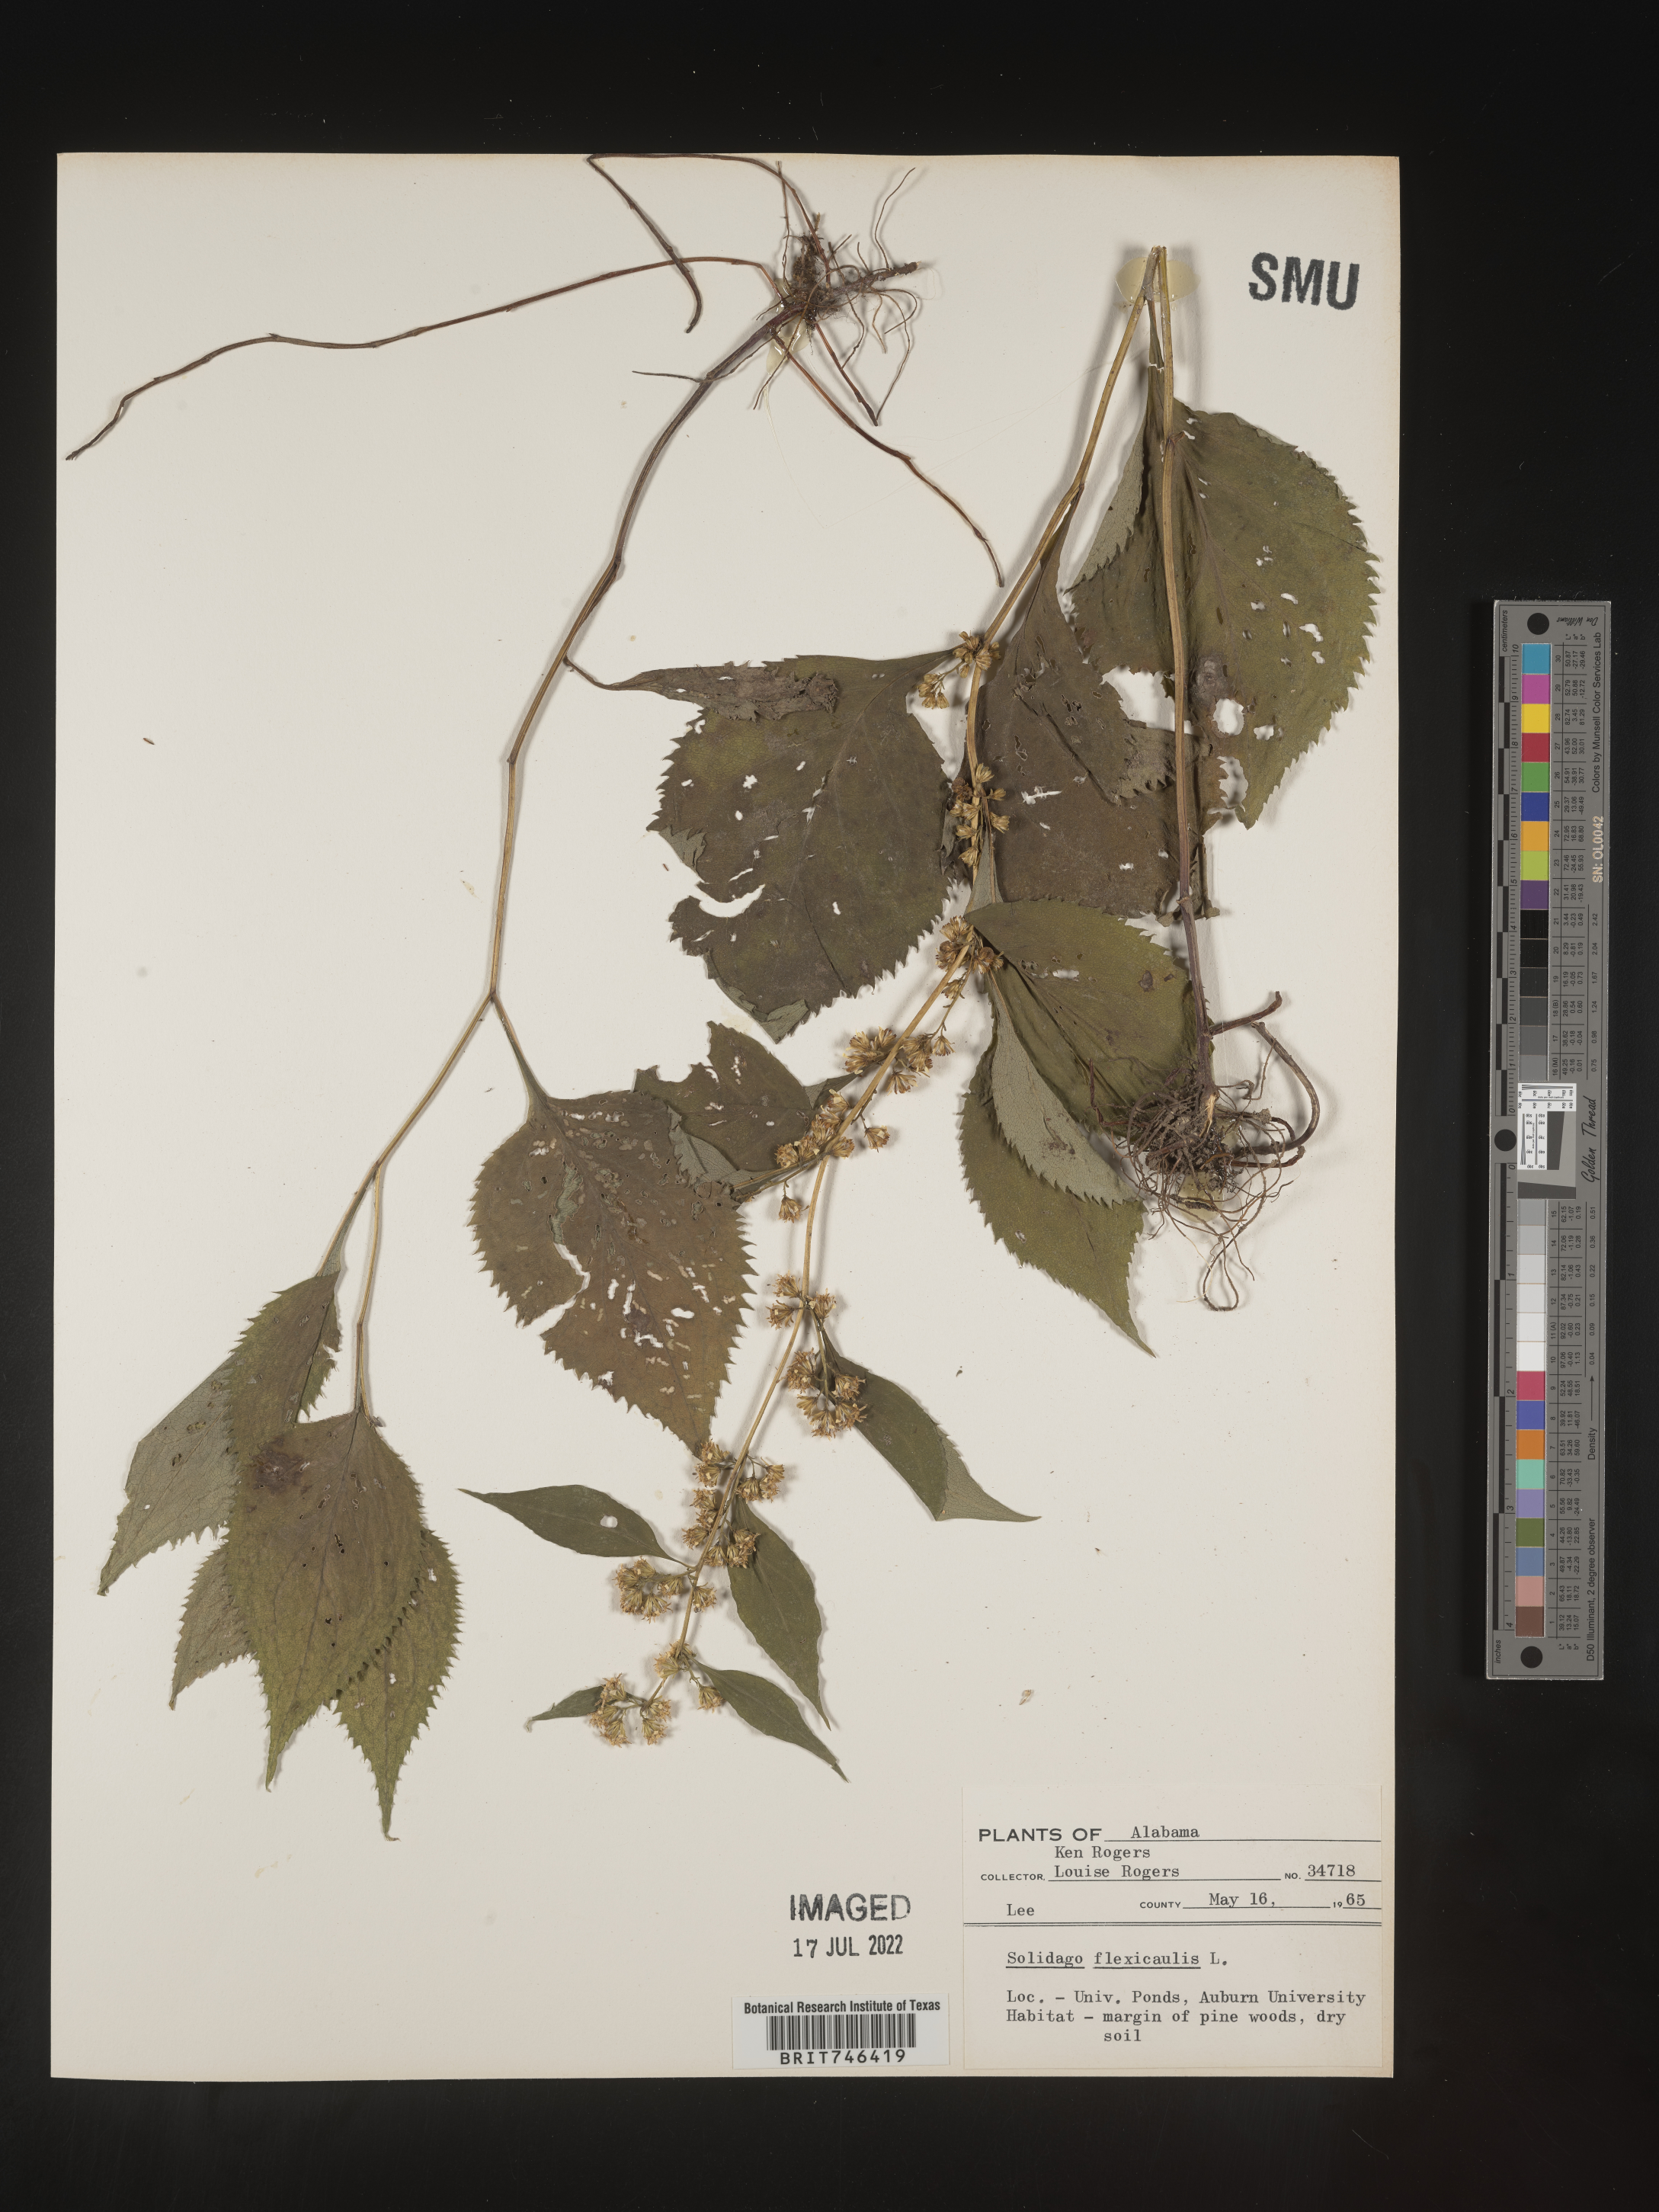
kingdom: Plantae
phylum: Tracheophyta
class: Magnoliopsida
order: Asterales
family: Asteraceae
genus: Solidago
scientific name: Solidago flexicaulis
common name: Zig-zag goldenrod
